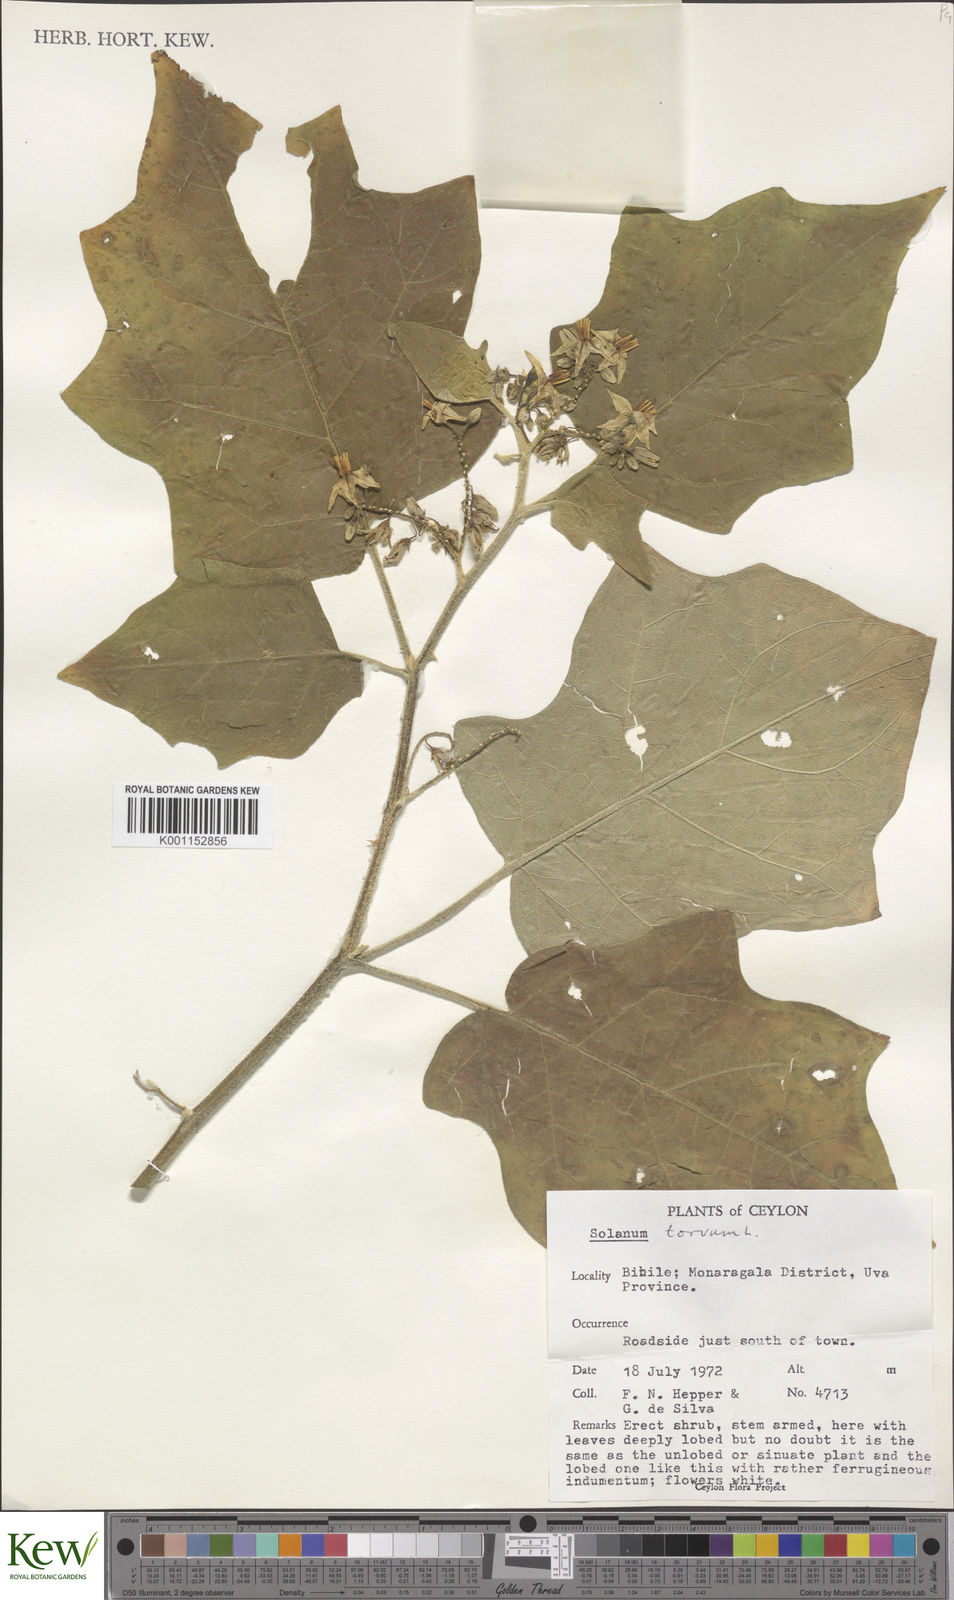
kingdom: Plantae
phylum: Tracheophyta
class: Magnoliopsida
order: Solanales
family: Solanaceae
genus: Solanum
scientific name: Solanum torvum
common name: Turkey berry
